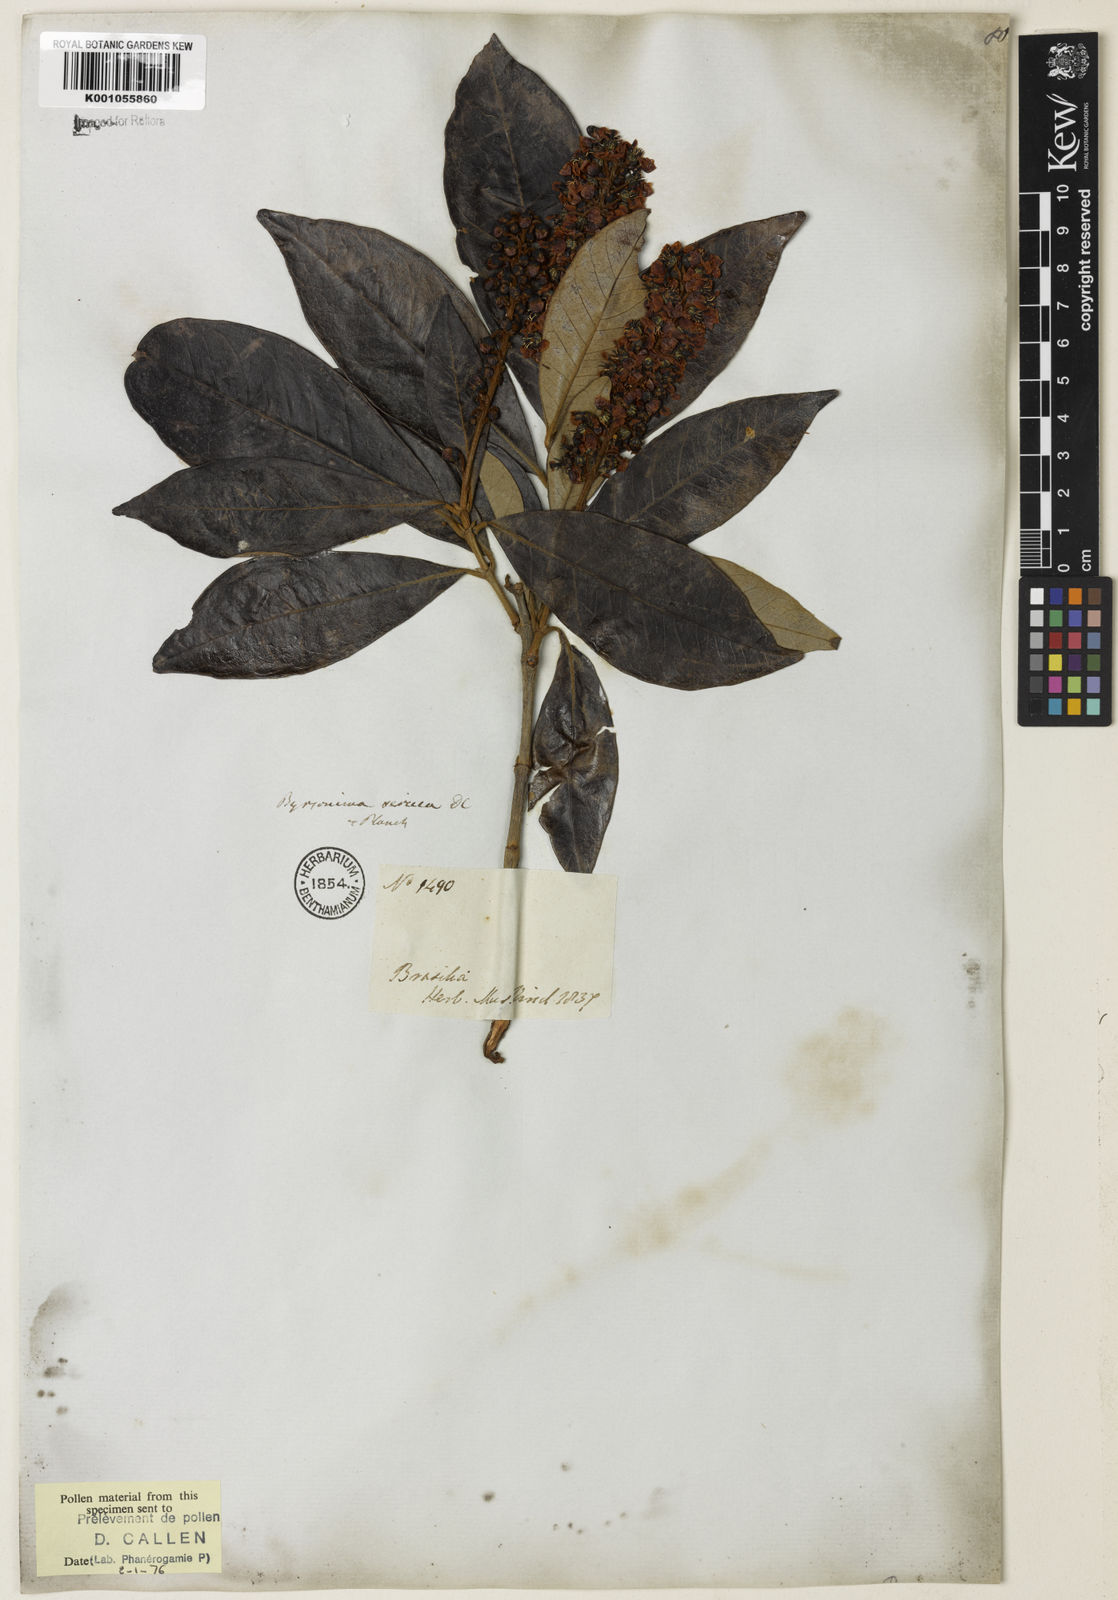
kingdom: Plantae
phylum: Tracheophyta
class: Magnoliopsida
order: Malpighiales
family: Malpighiaceae
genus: Byrsonima
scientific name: Byrsonima sericea
